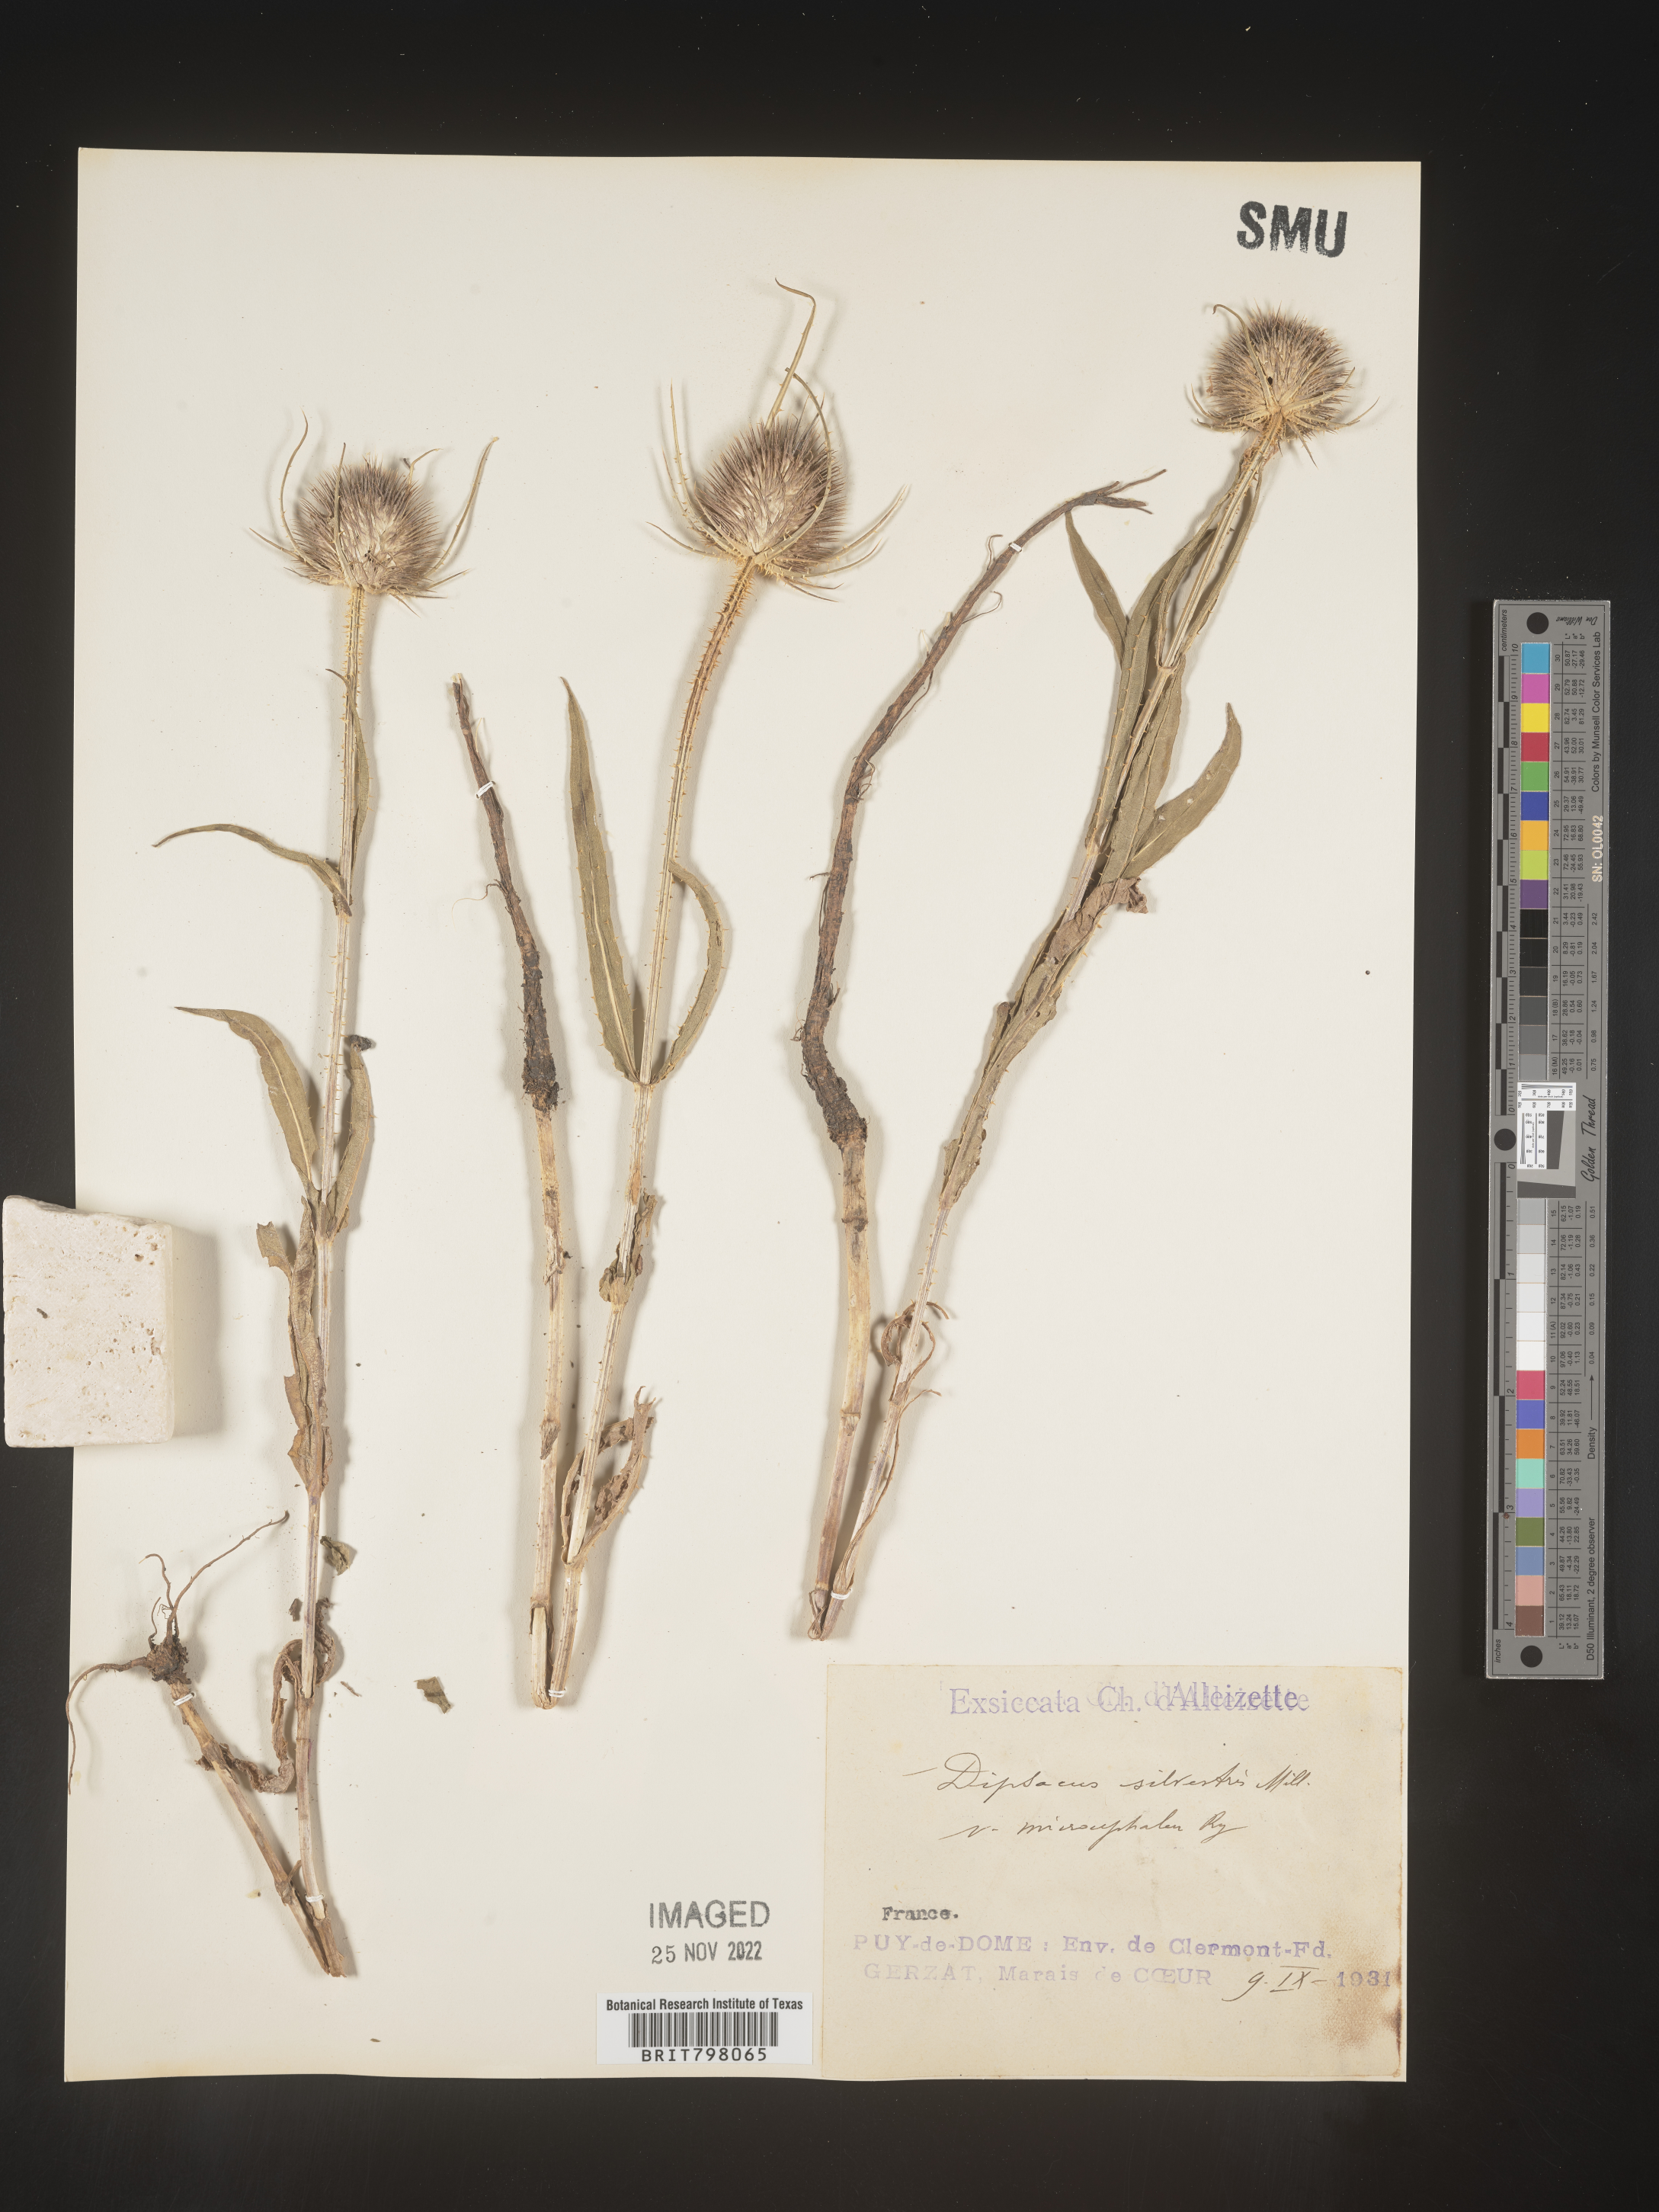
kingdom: Plantae
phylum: Tracheophyta
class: Magnoliopsida
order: Dipsacales
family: Caprifoliaceae
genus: Dipsacus
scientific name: Dipsacus
